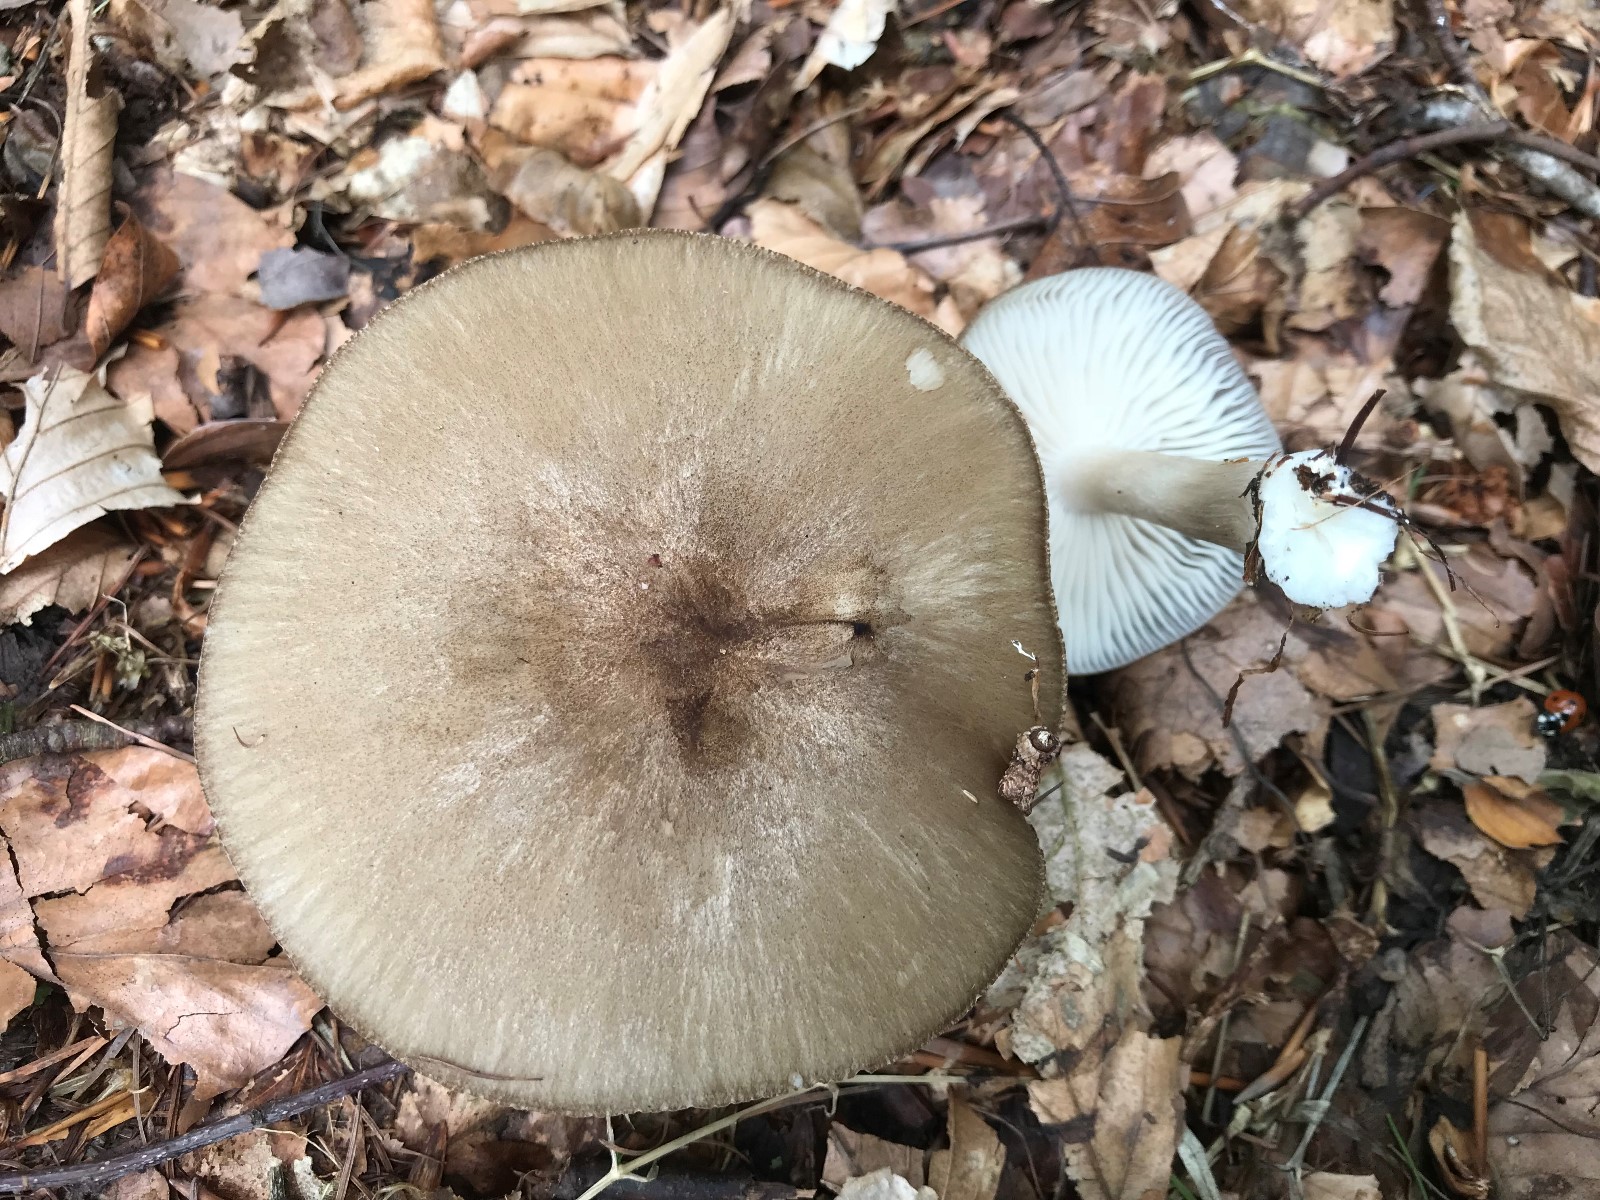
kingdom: Fungi
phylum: Basidiomycota
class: Agaricomycetes
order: Agaricales
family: Tricholomataceae
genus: Megacollybia
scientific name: Megacollybia platyphylla
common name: bredbladet væbnerhat
